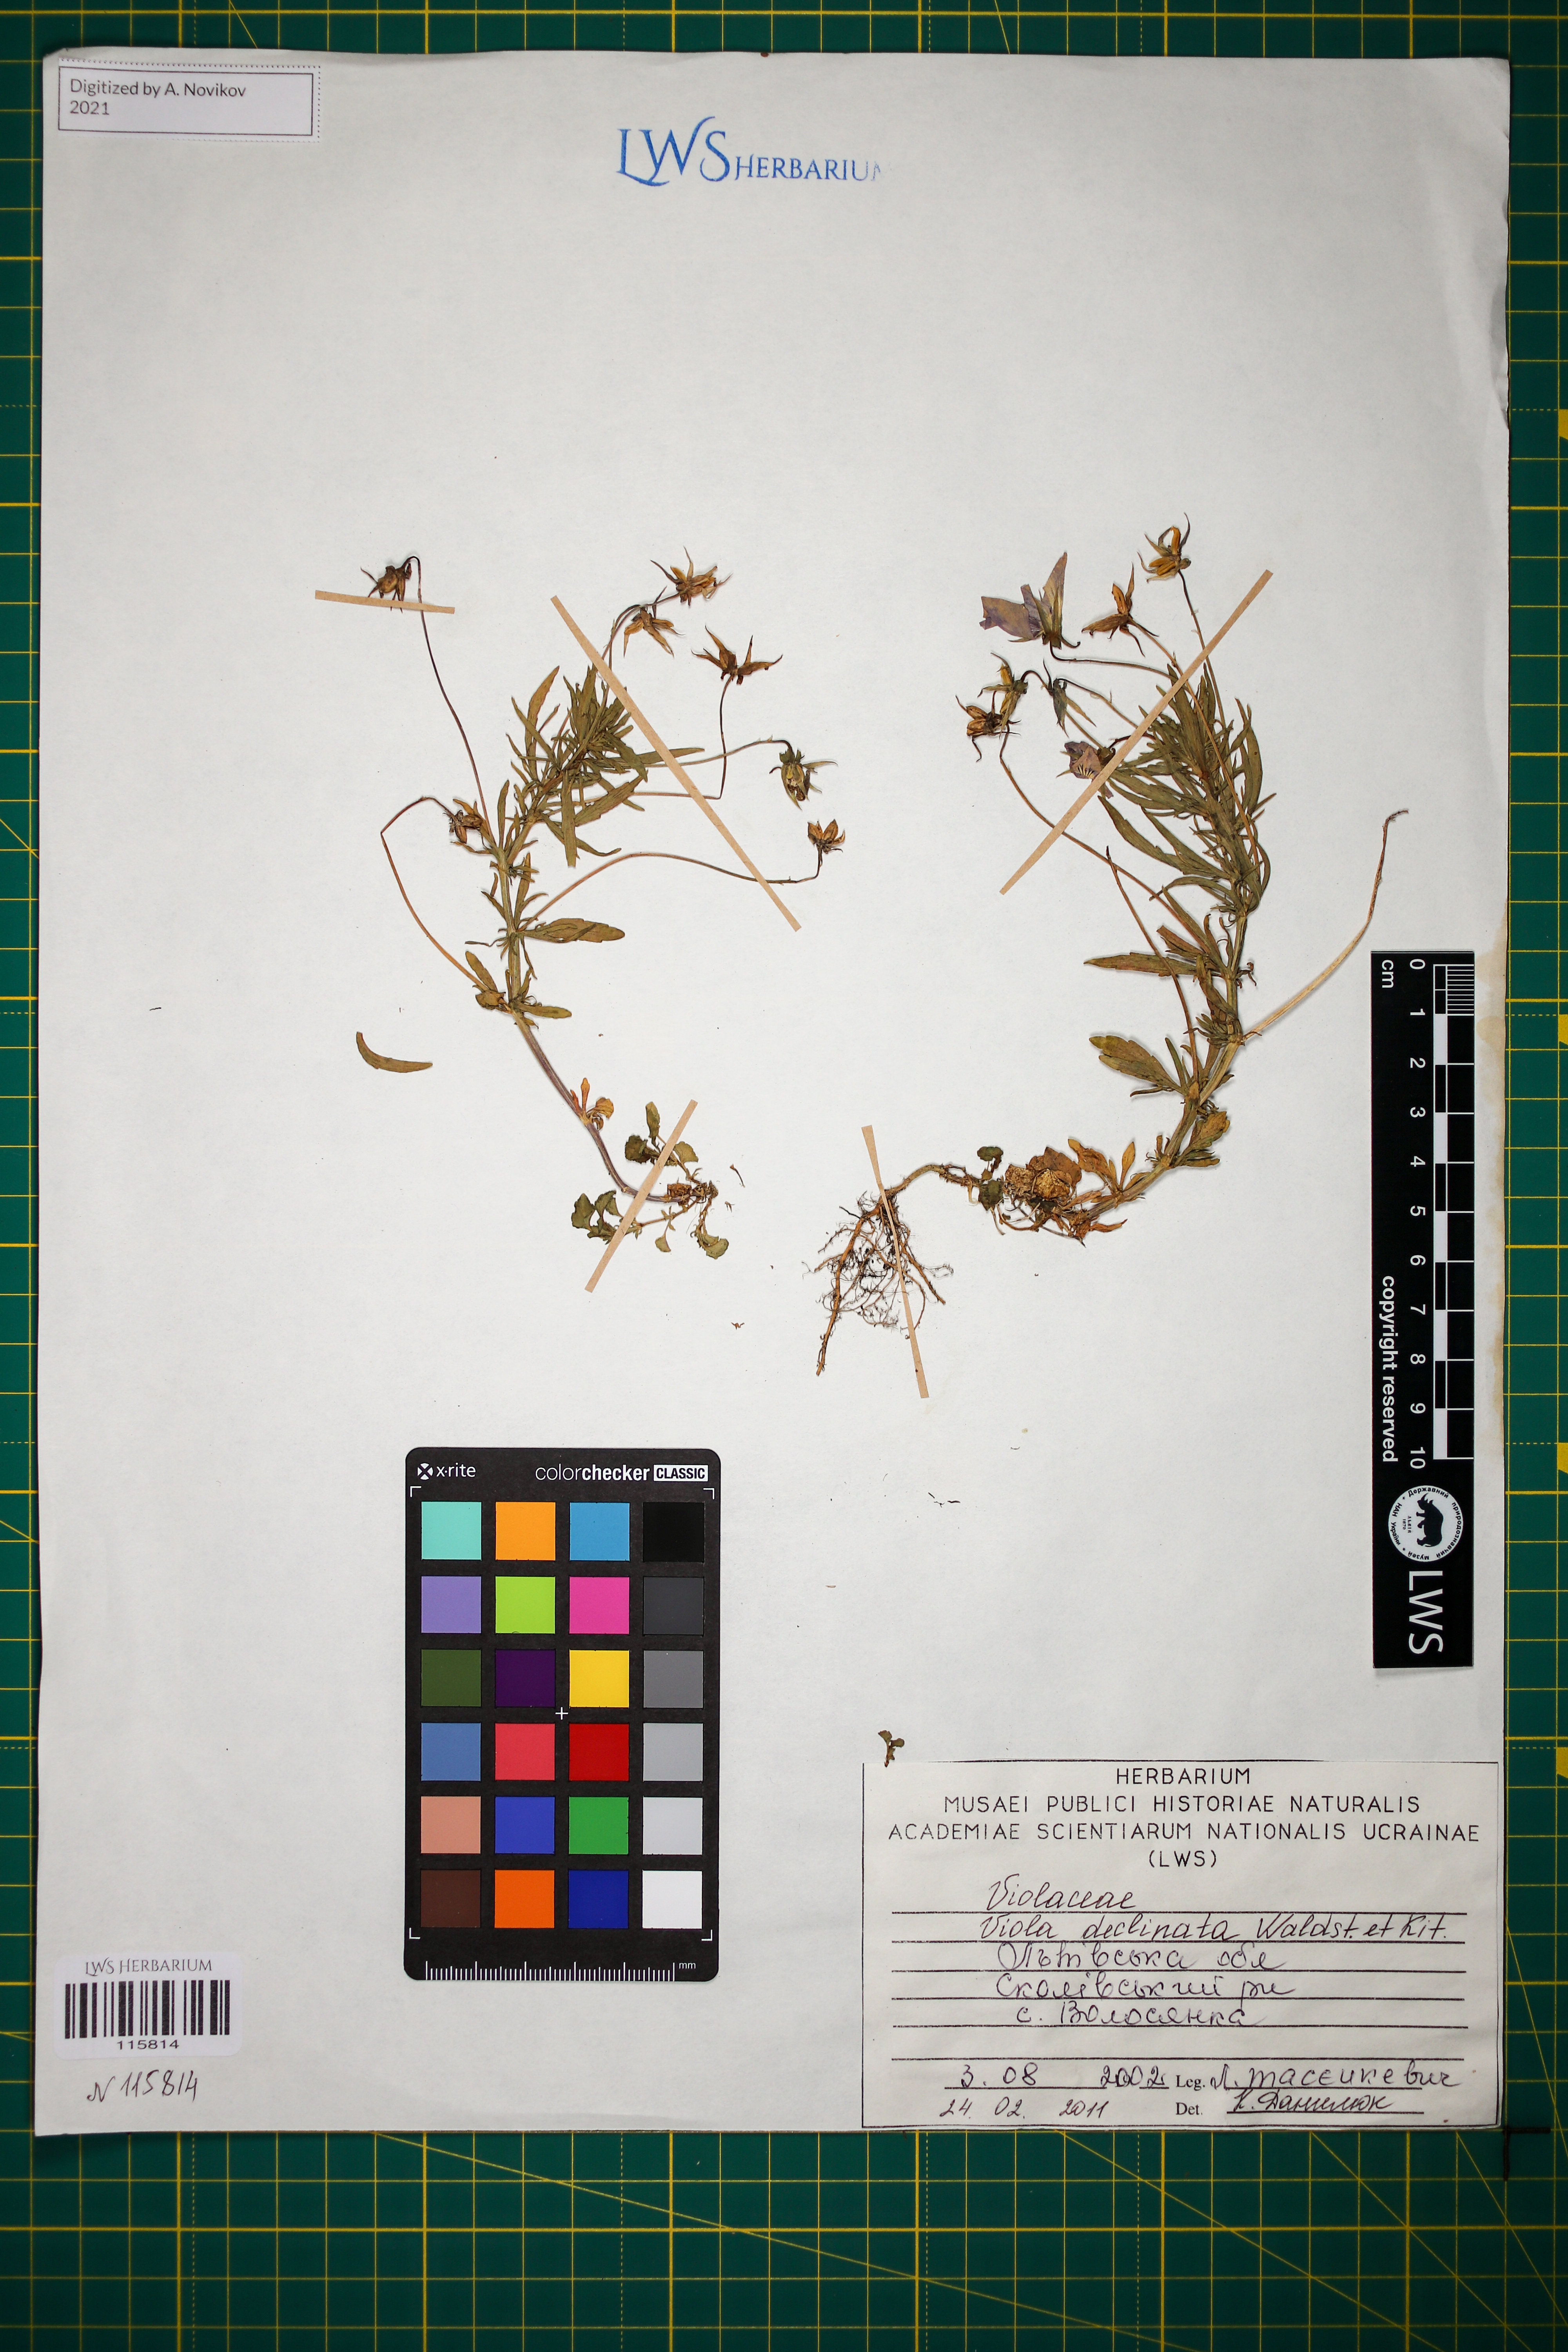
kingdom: Plantae
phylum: Tracheophyta
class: Magnoliopsida
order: Malpighiales
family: Violaceae
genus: Viola
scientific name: Viola declinata
